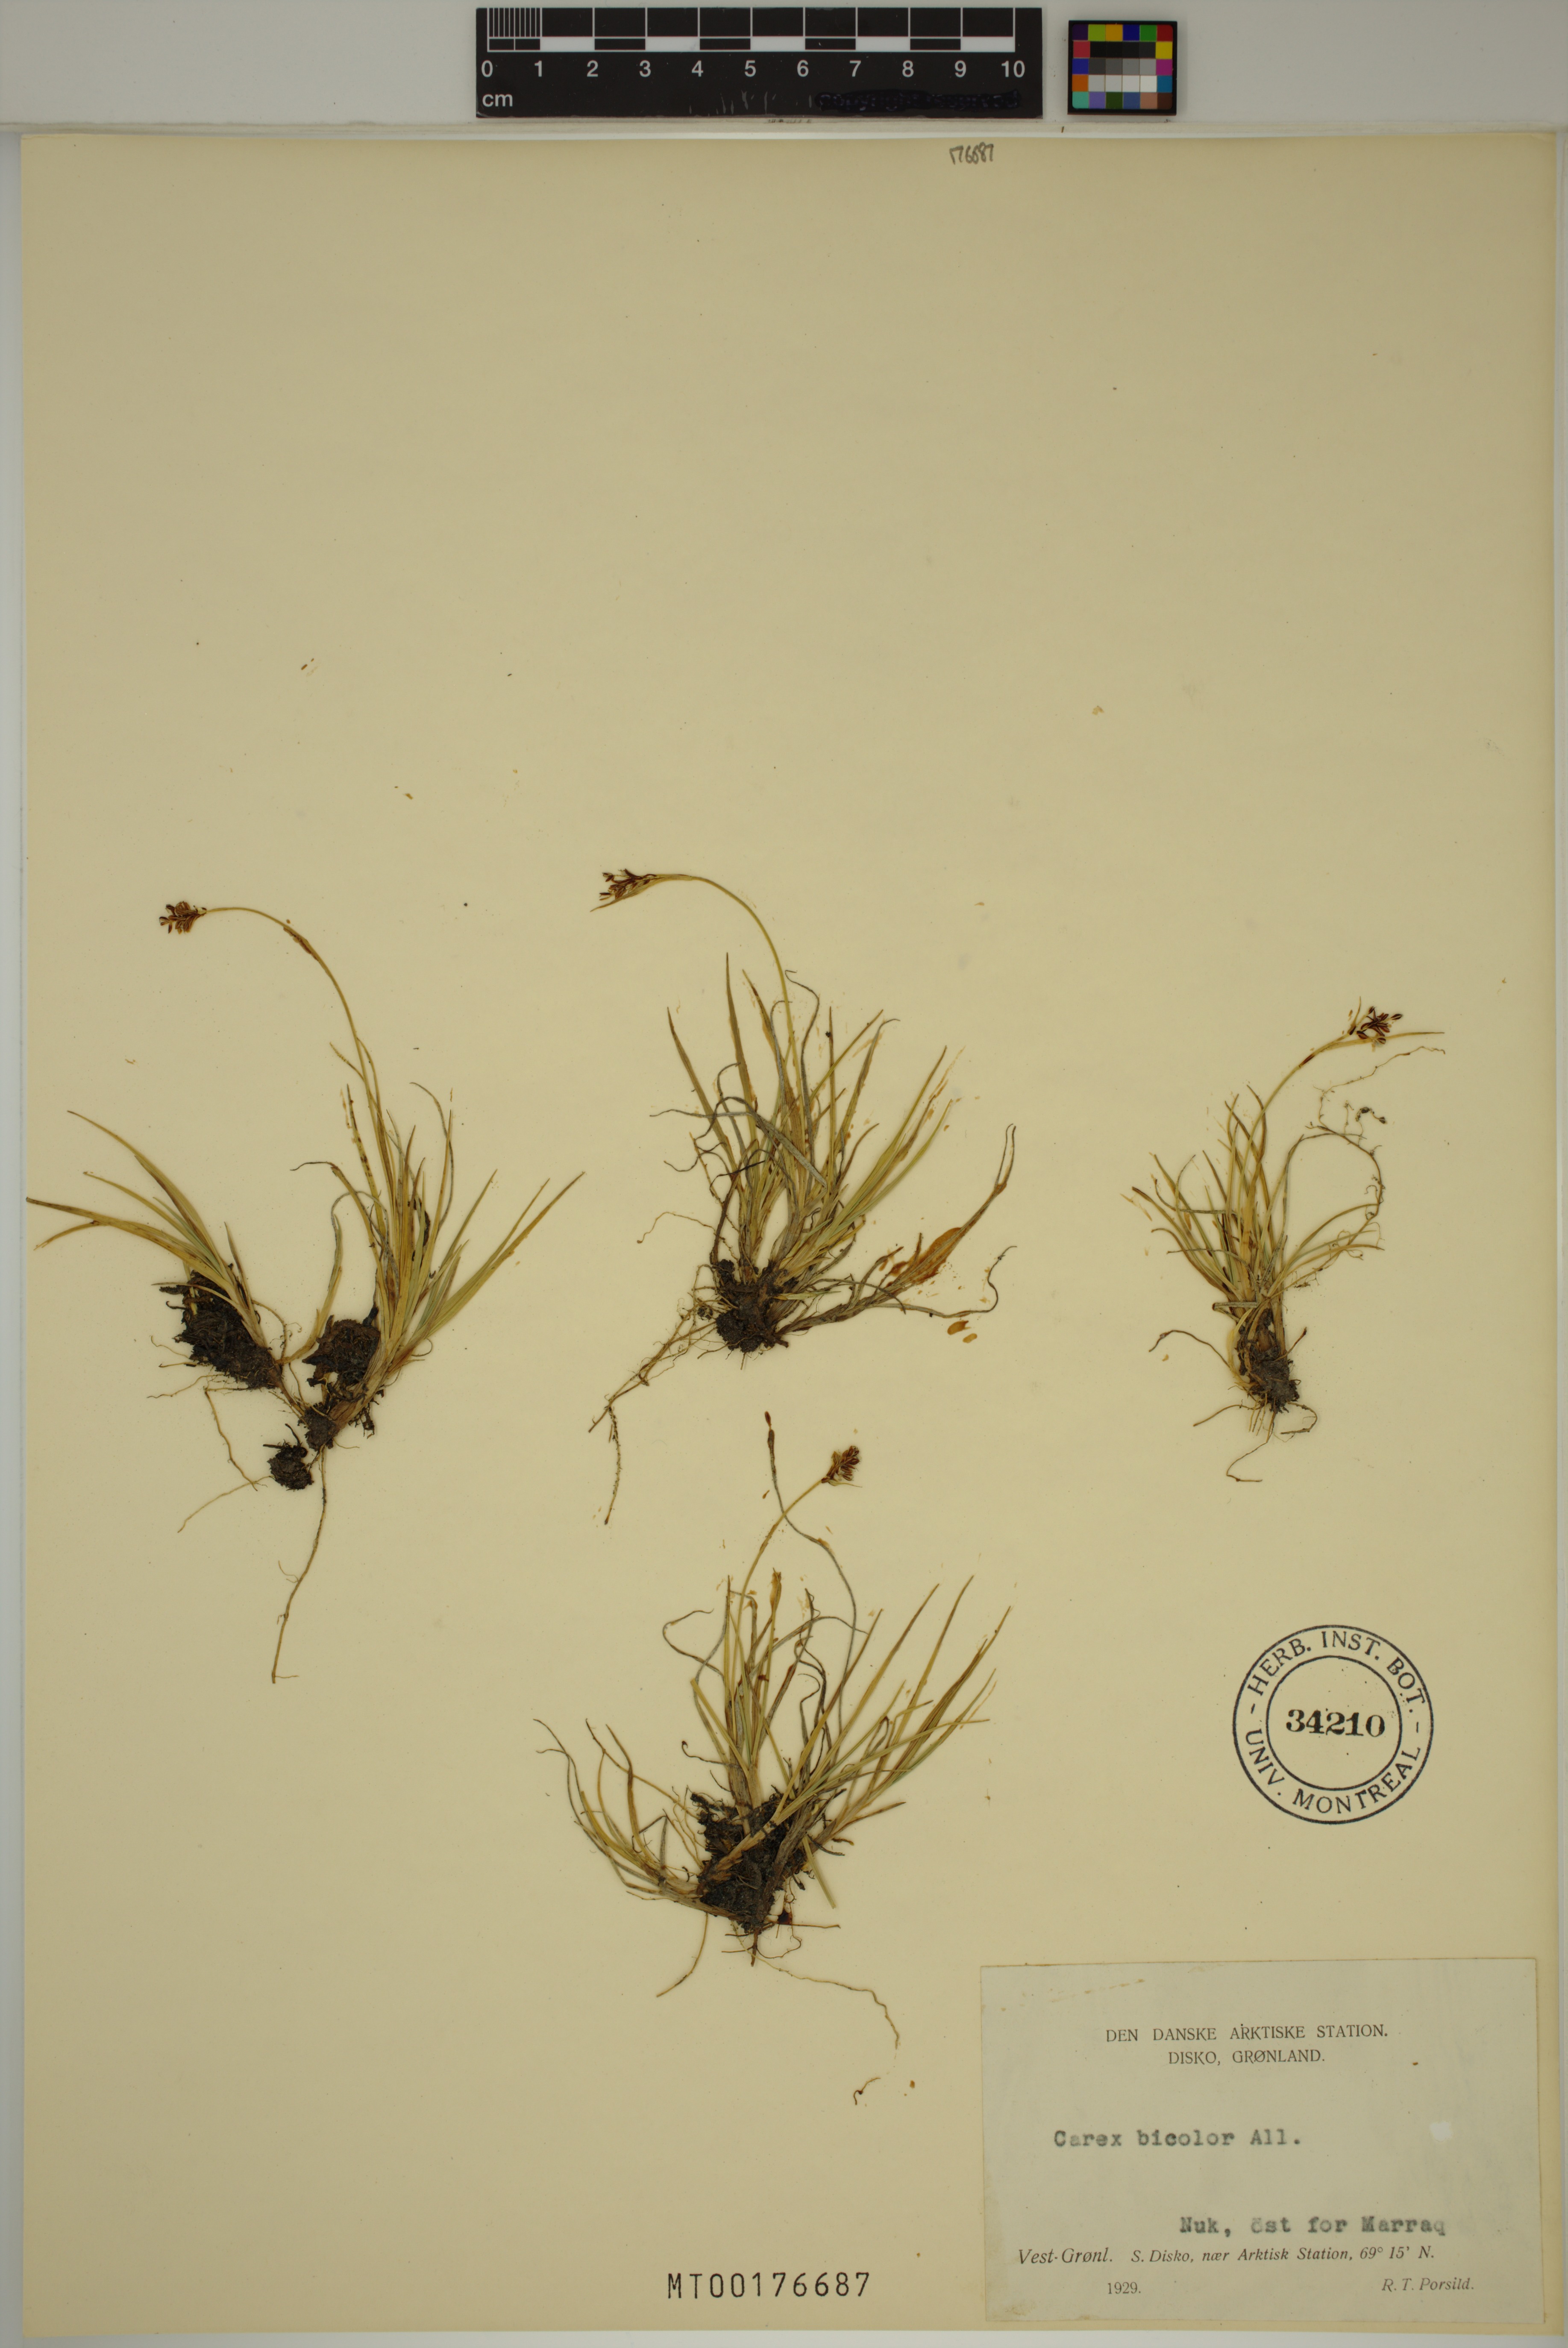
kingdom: Plantae
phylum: Tracheophyta
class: Liliopsida
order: Poales
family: Cyperaceae
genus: Carex
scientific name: Carex bicolor
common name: Bicoloured sedge
